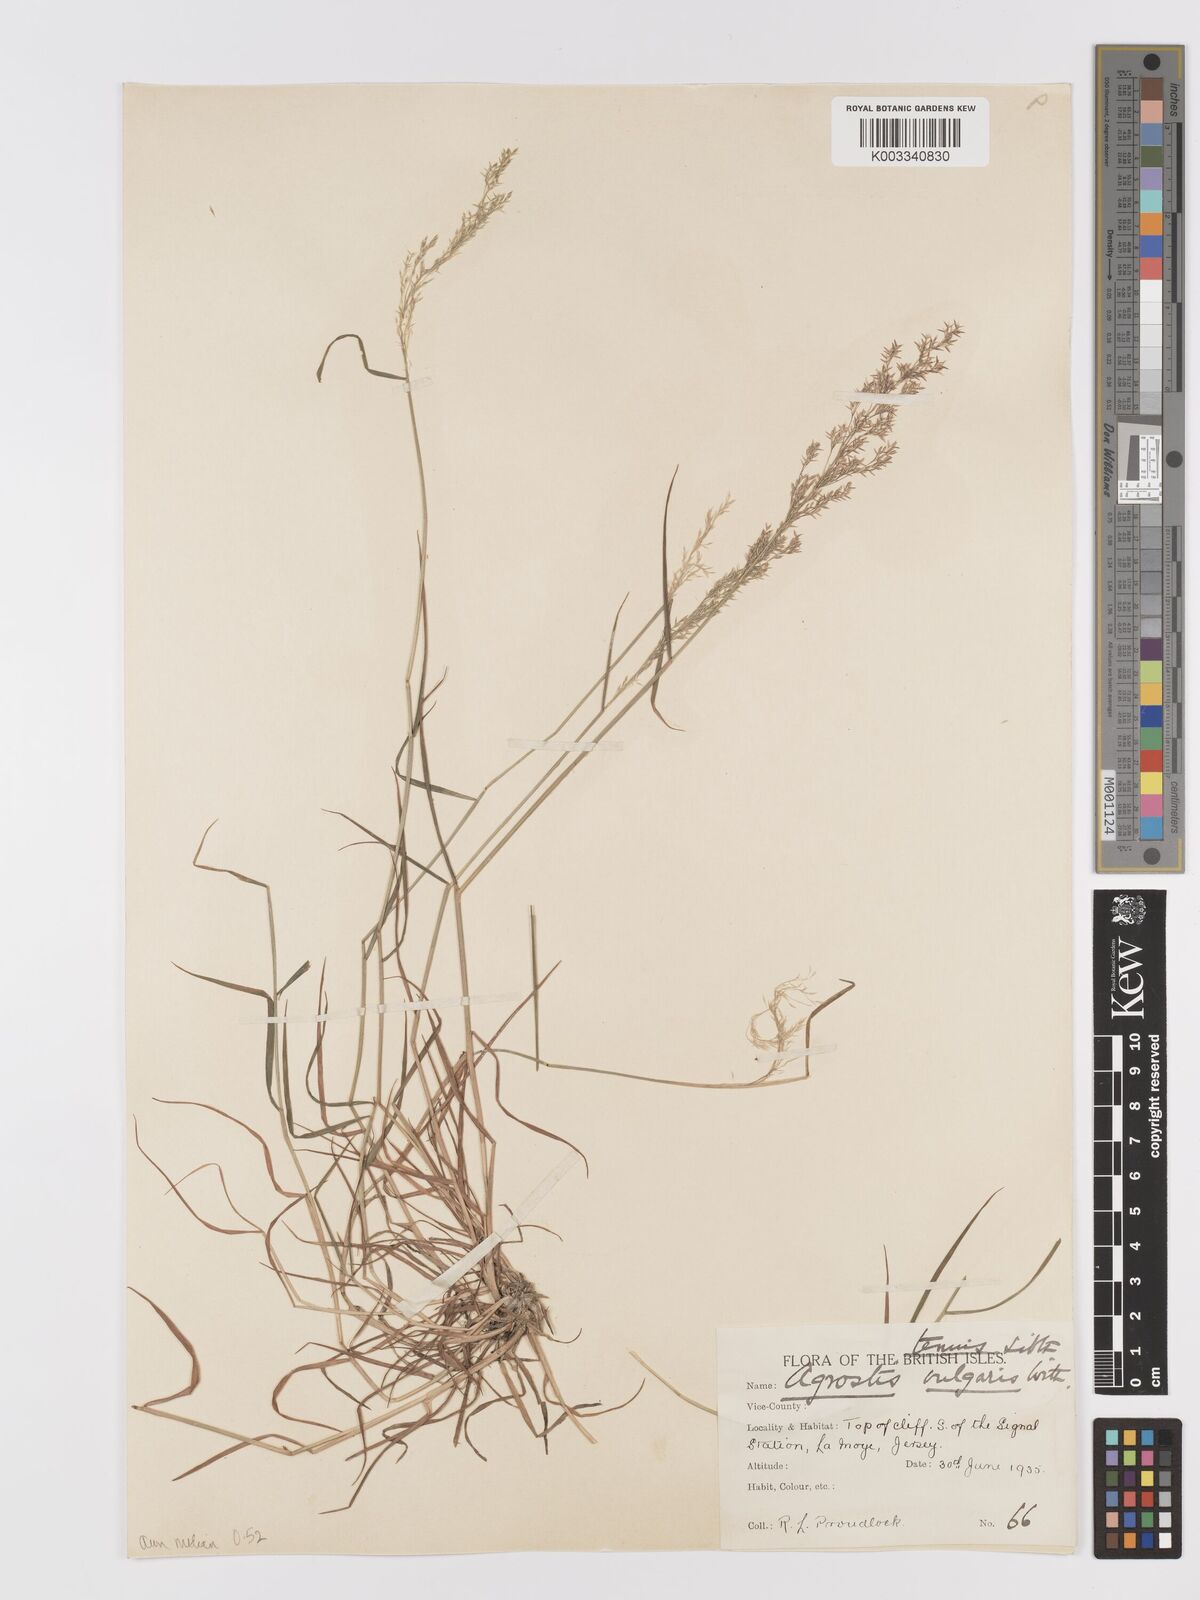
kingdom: Plantae
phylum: Tracheophyta
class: Liliopsida
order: Poales
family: Poaceae
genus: Agrostis
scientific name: Agrostis capillaris
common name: Colonial bentgrass
